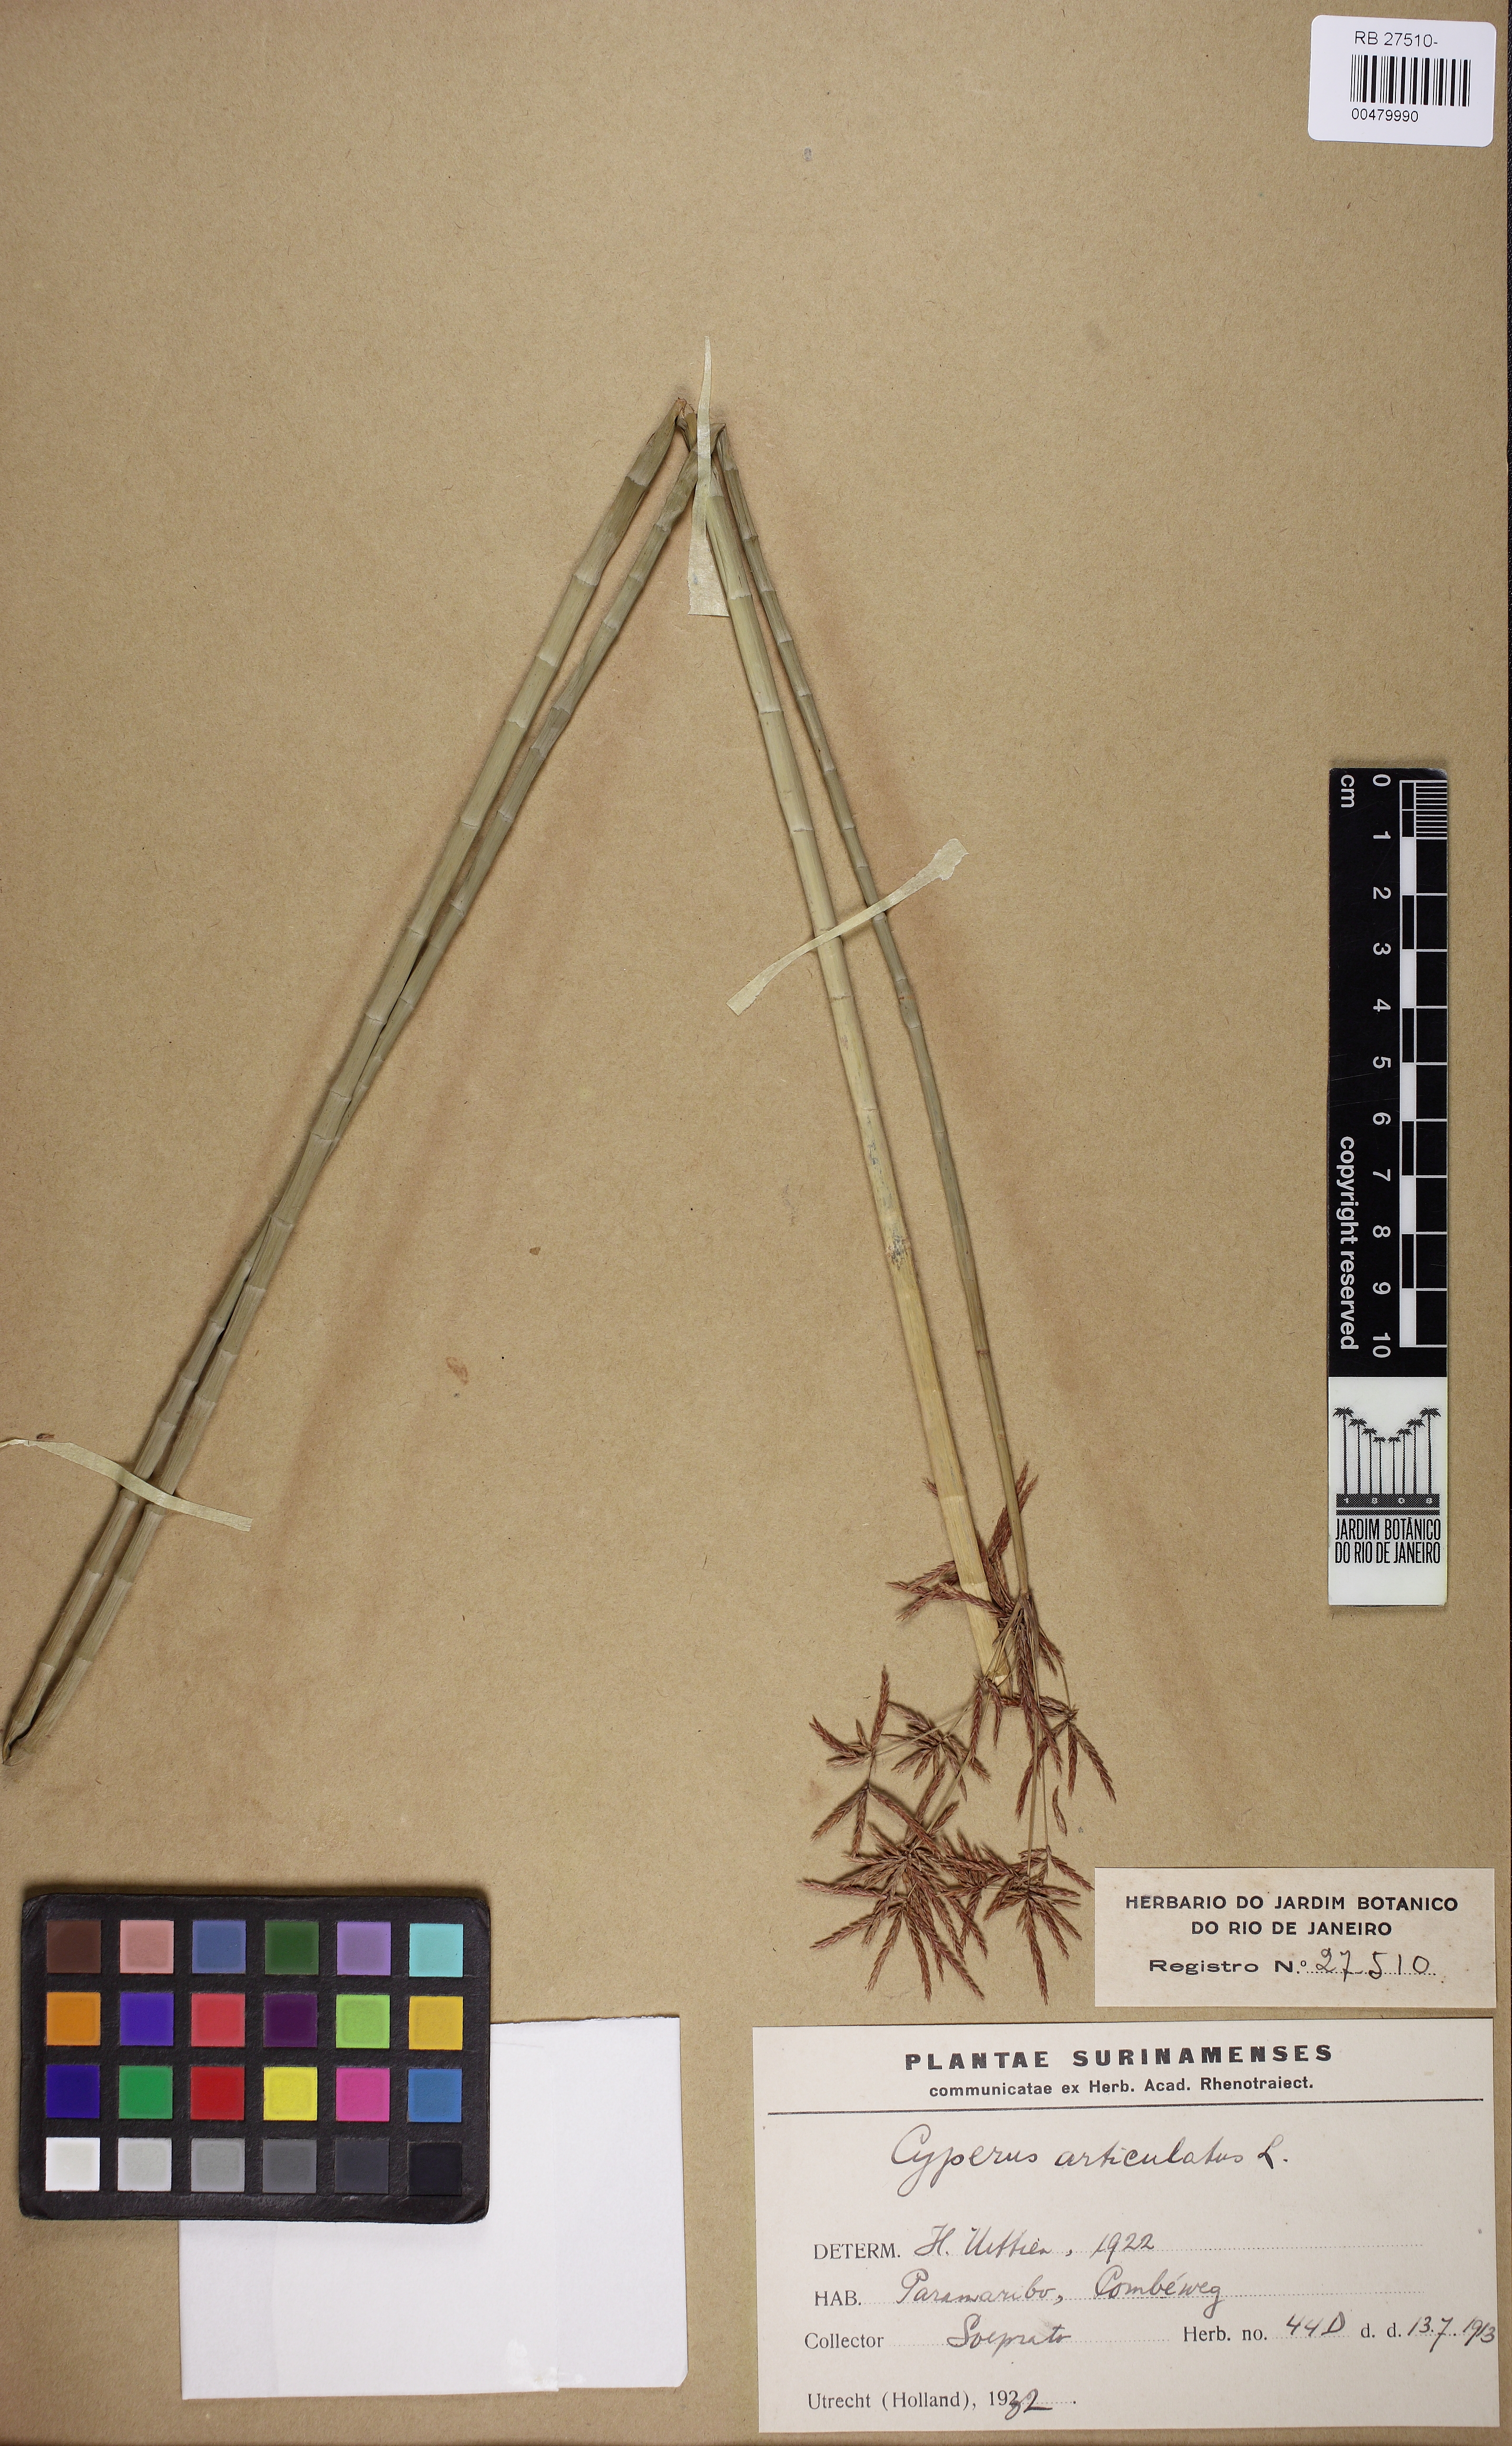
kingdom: Plantae
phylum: Tracheophyta
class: Liliopsida
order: Poales
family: Cyperaceae
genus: Cyperus
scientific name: Cyperus articulatus
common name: Jointed flatsedge
